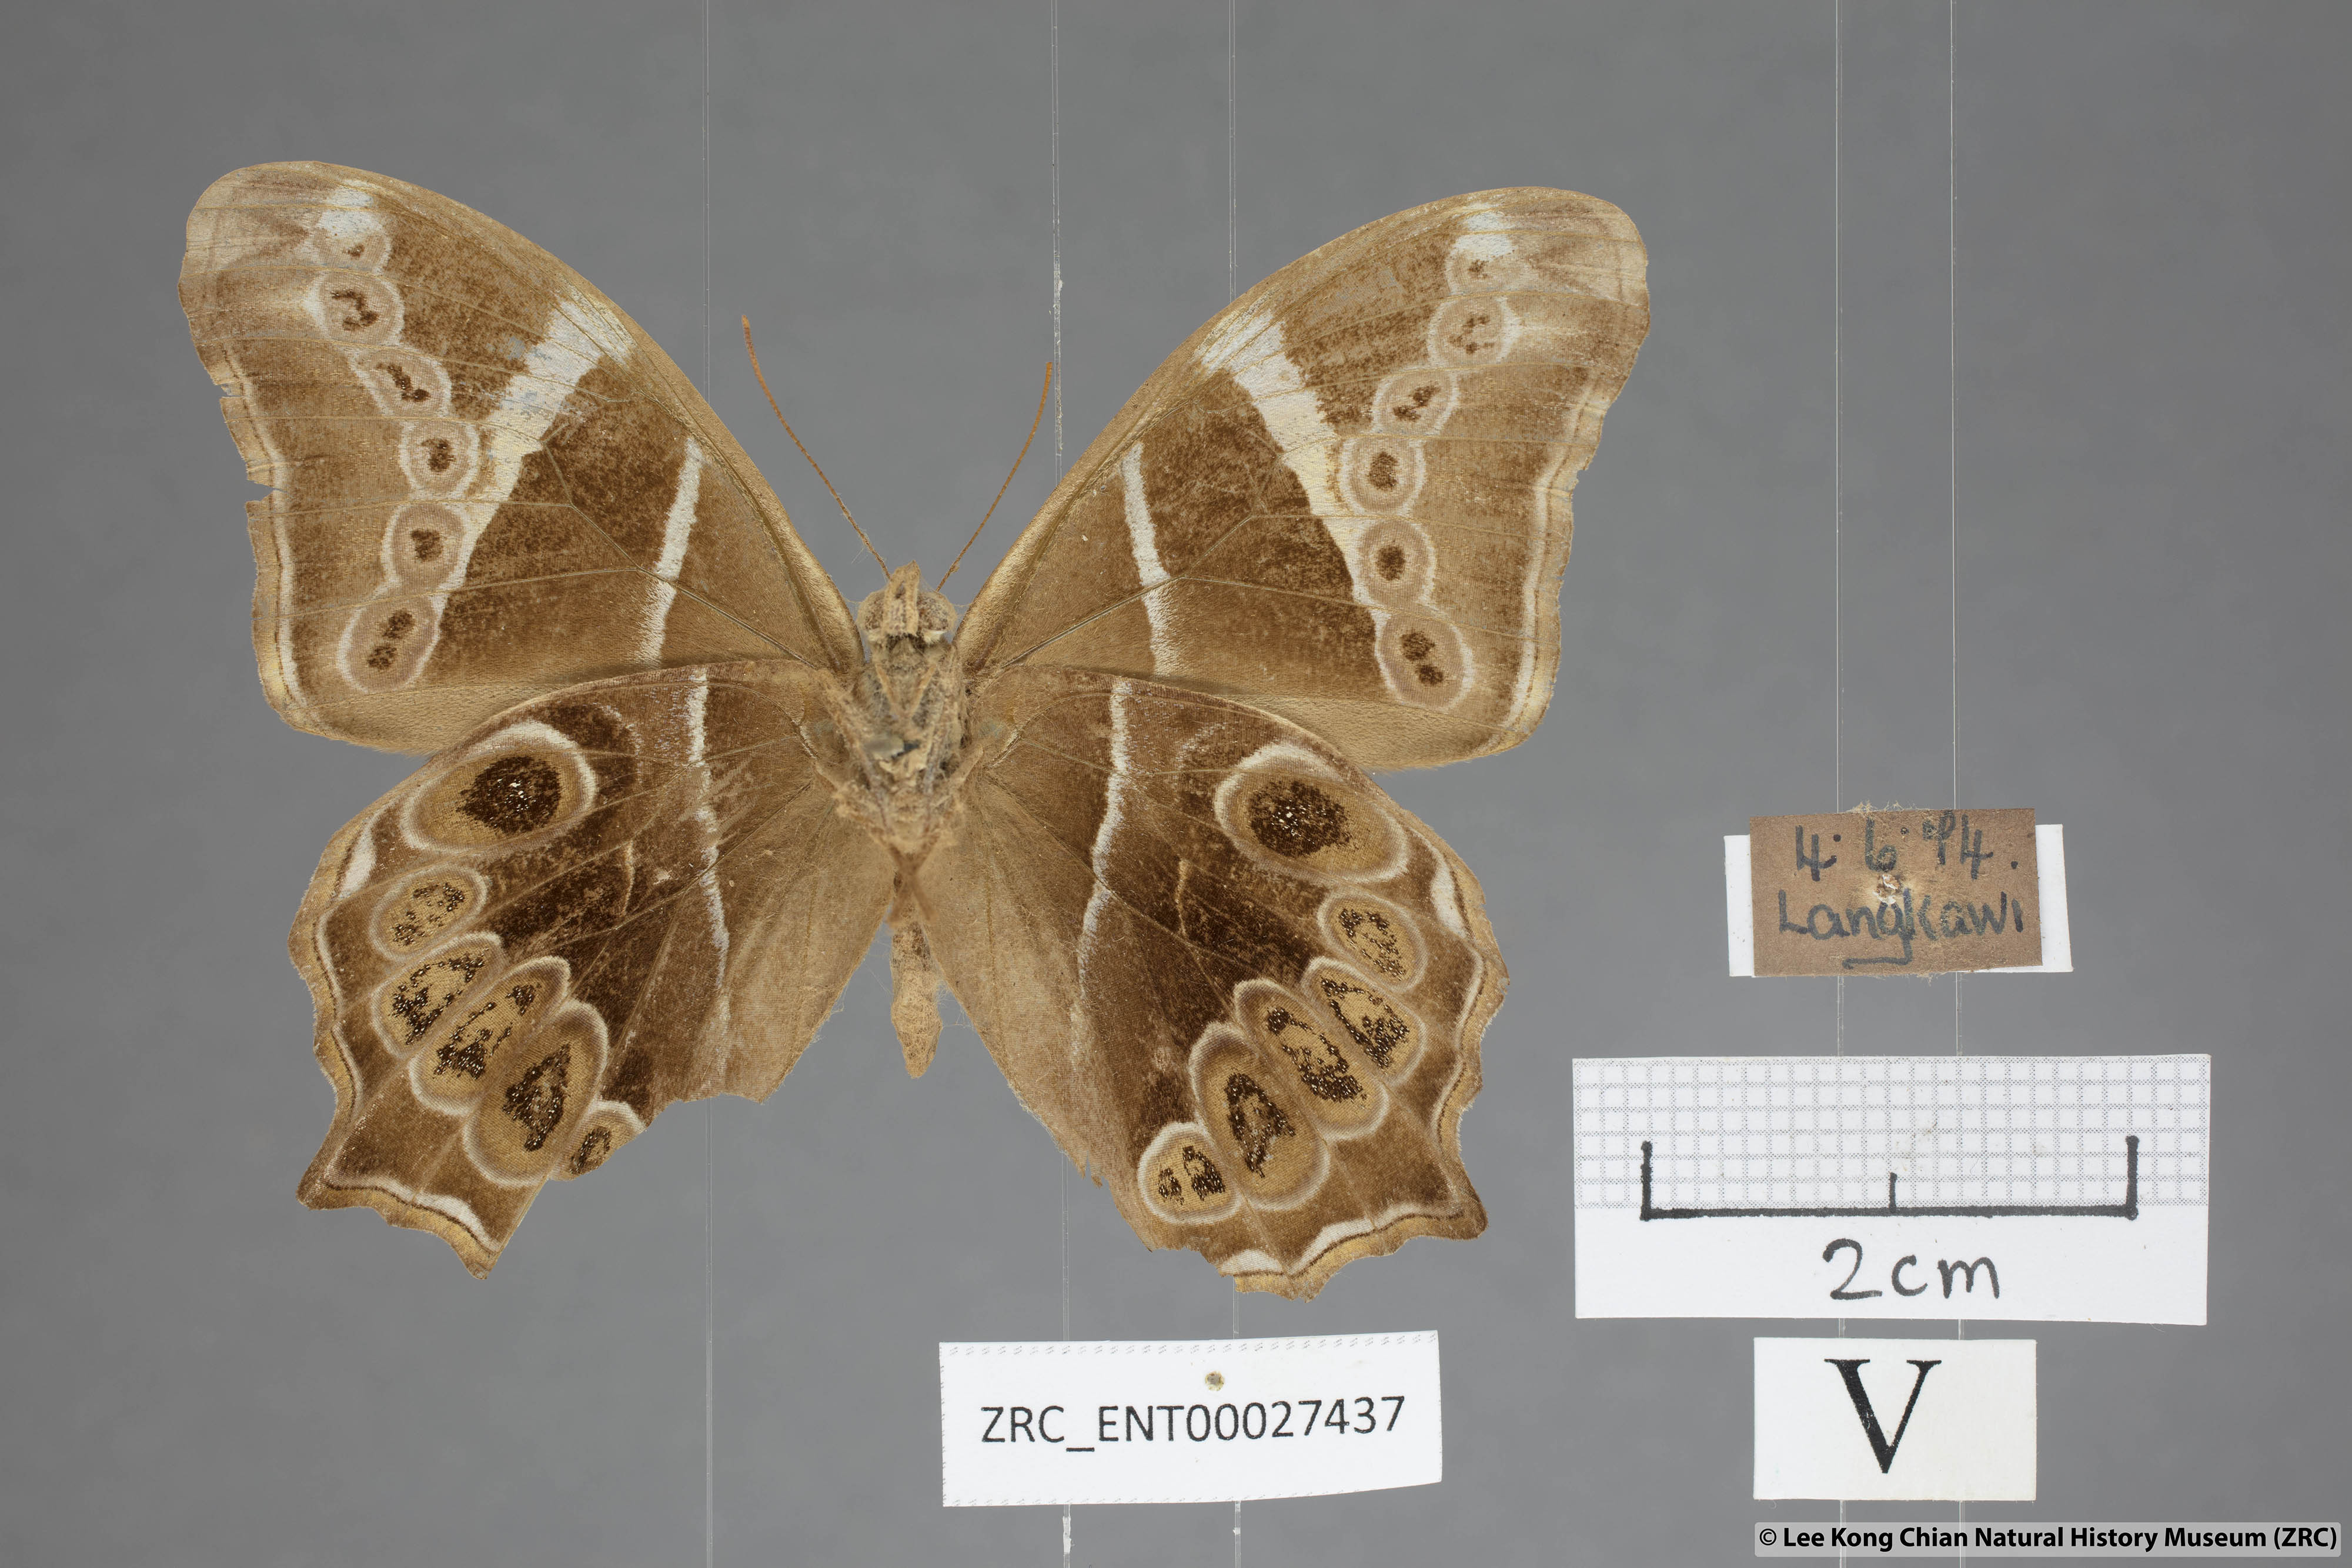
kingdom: Animalia
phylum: Arthropoda
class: Insecta
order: Lepidoptera
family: Nymphalidae
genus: Lethe
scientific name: Lethe europa
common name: Bamboo treebrown
